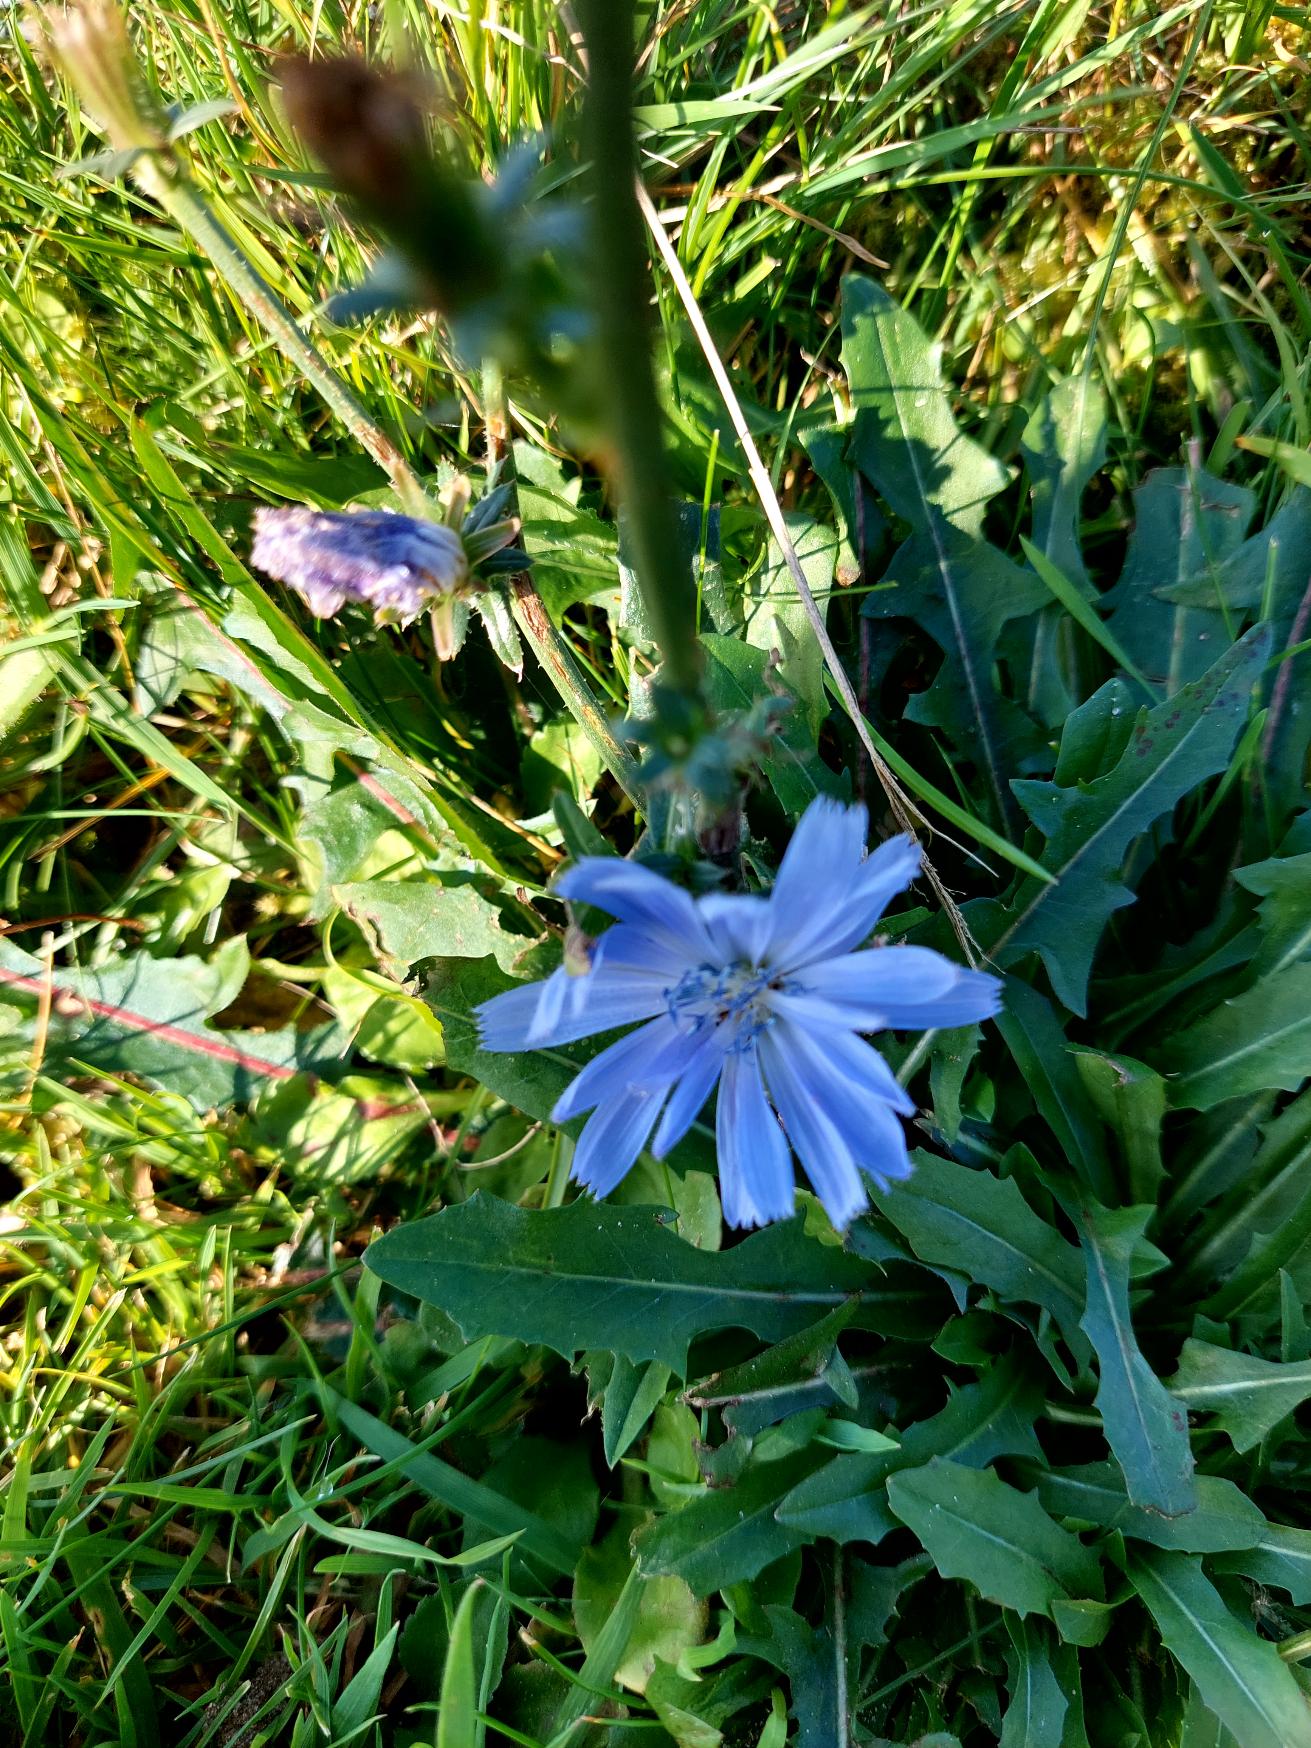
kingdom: Plantae
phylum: Tracheophyta
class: Magnoliopsida
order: Asterales
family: Asteraceae
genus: Cichorium
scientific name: Cichorium intybus
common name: Cikorie
